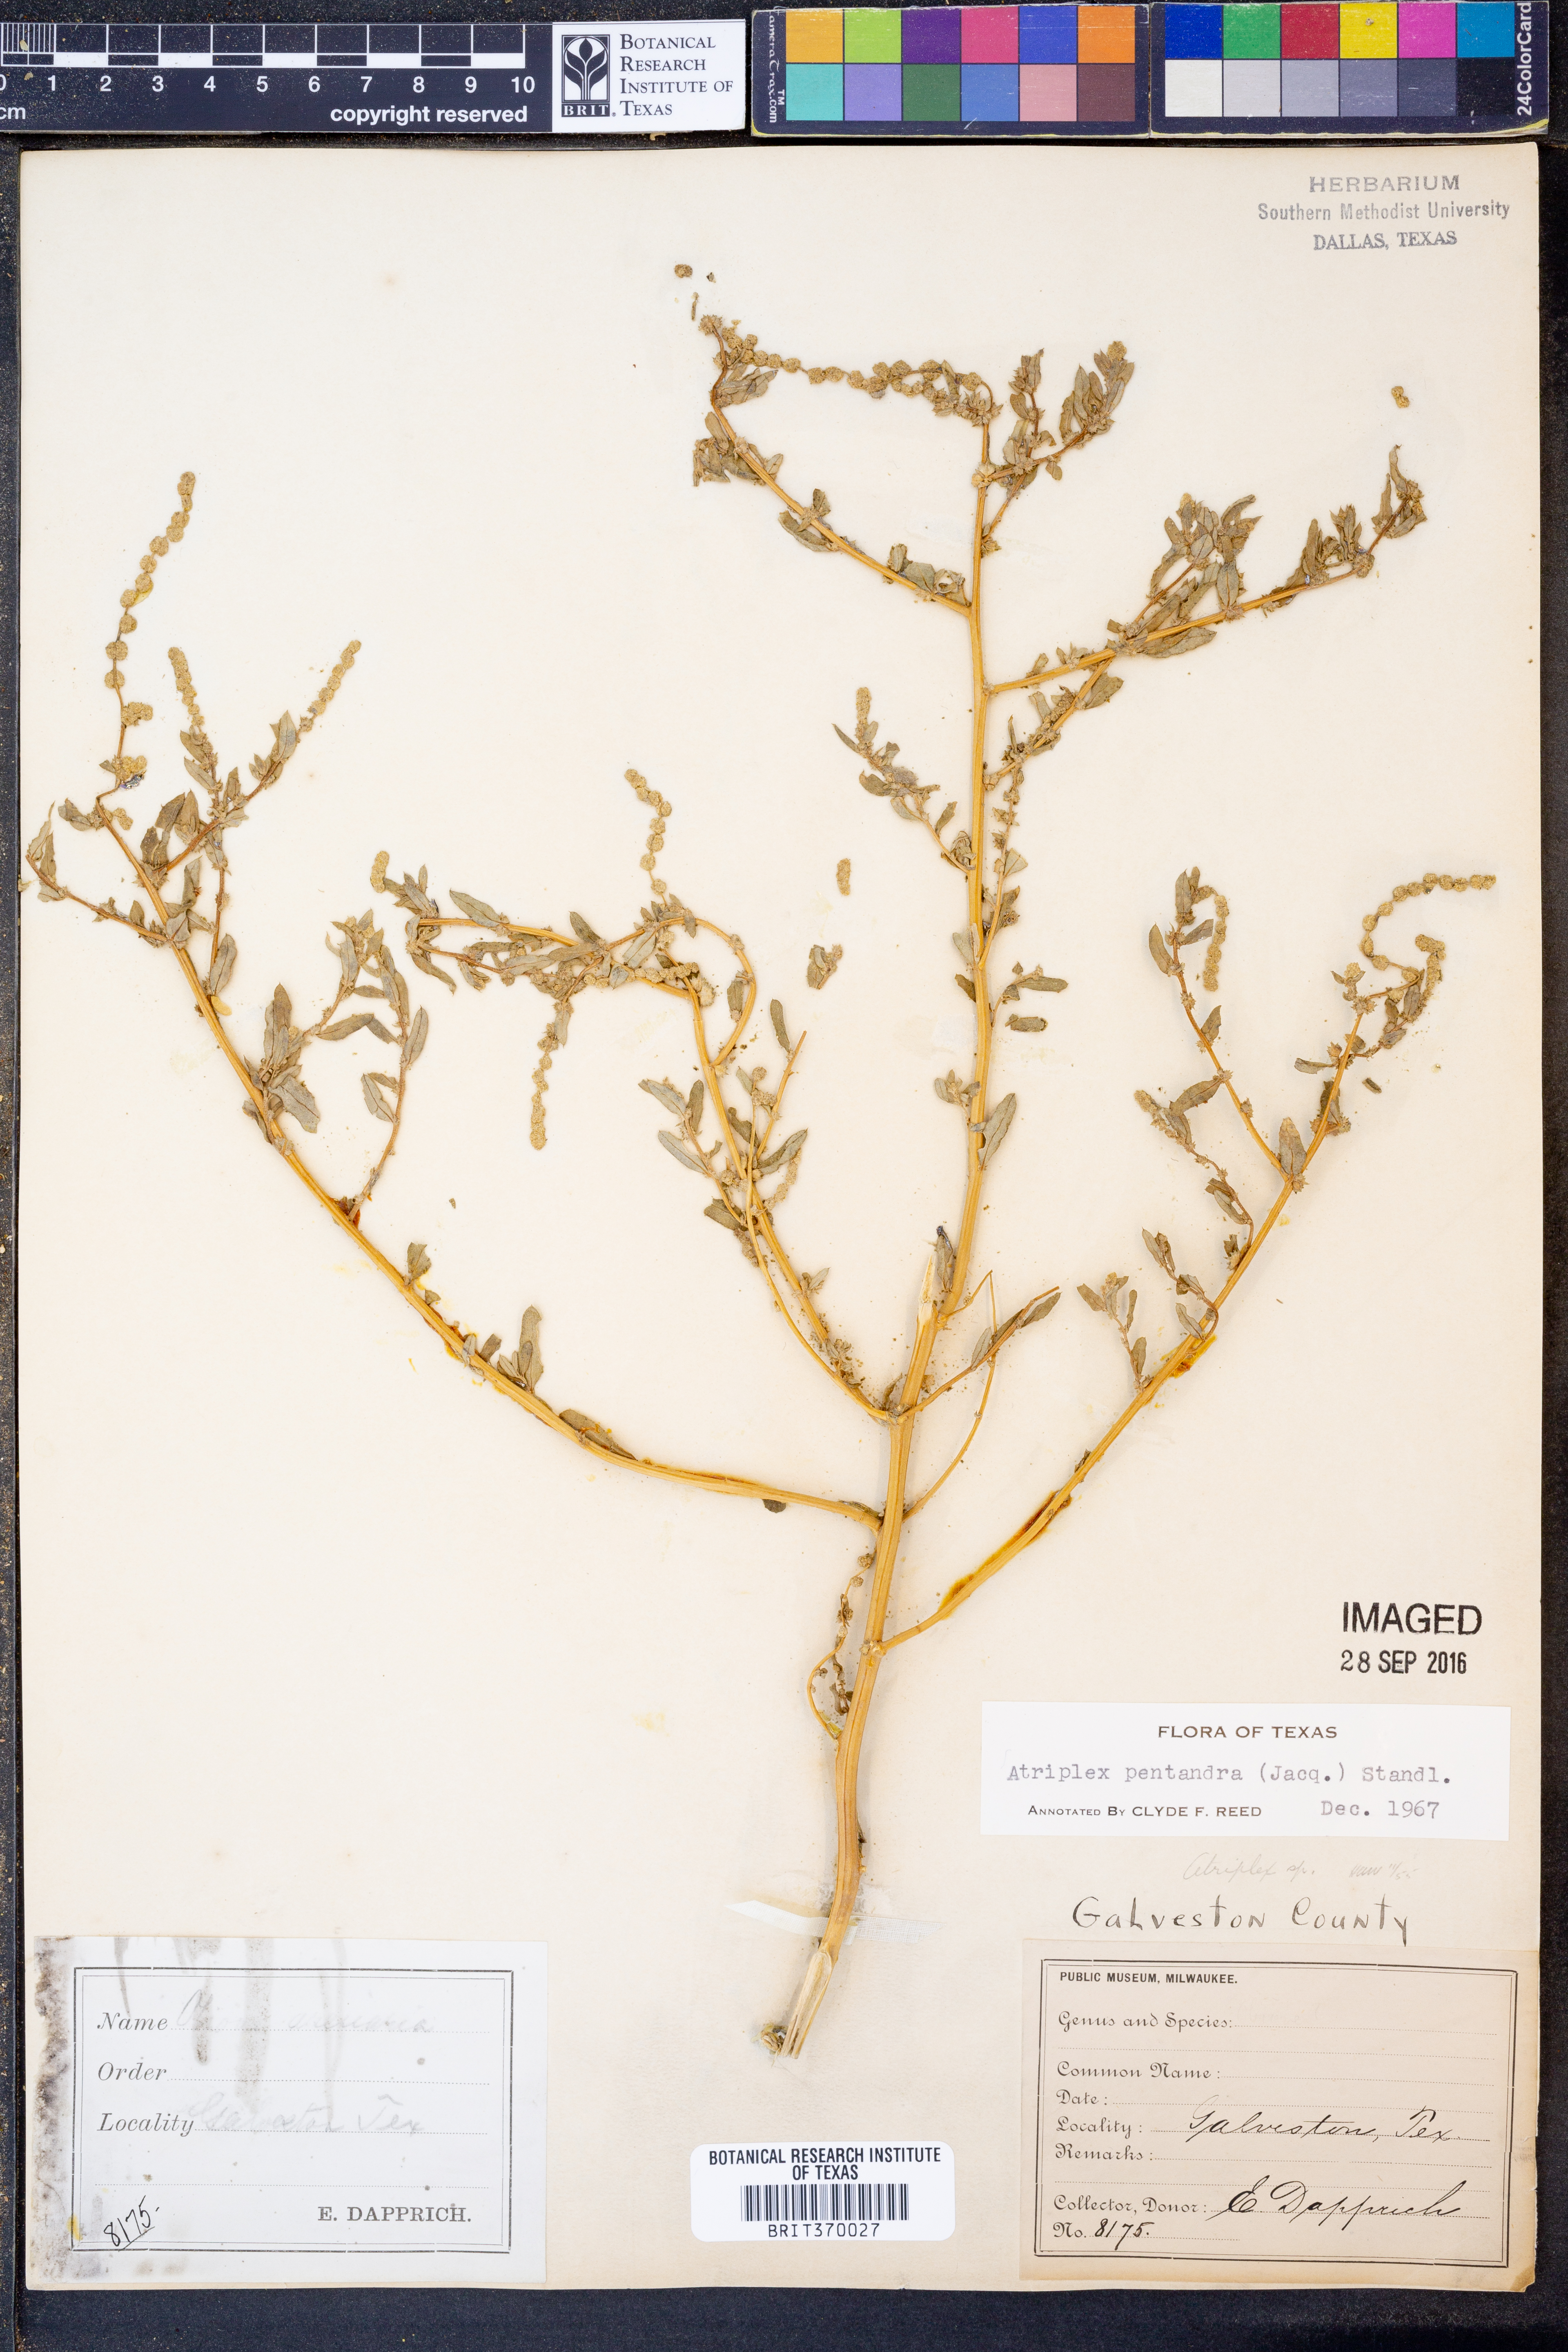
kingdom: Plantae
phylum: Tracheophyta
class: Magnoliopsida
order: Caryophyllales
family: Amaranthaceae
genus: Atriplex
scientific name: Atriplex cristata
